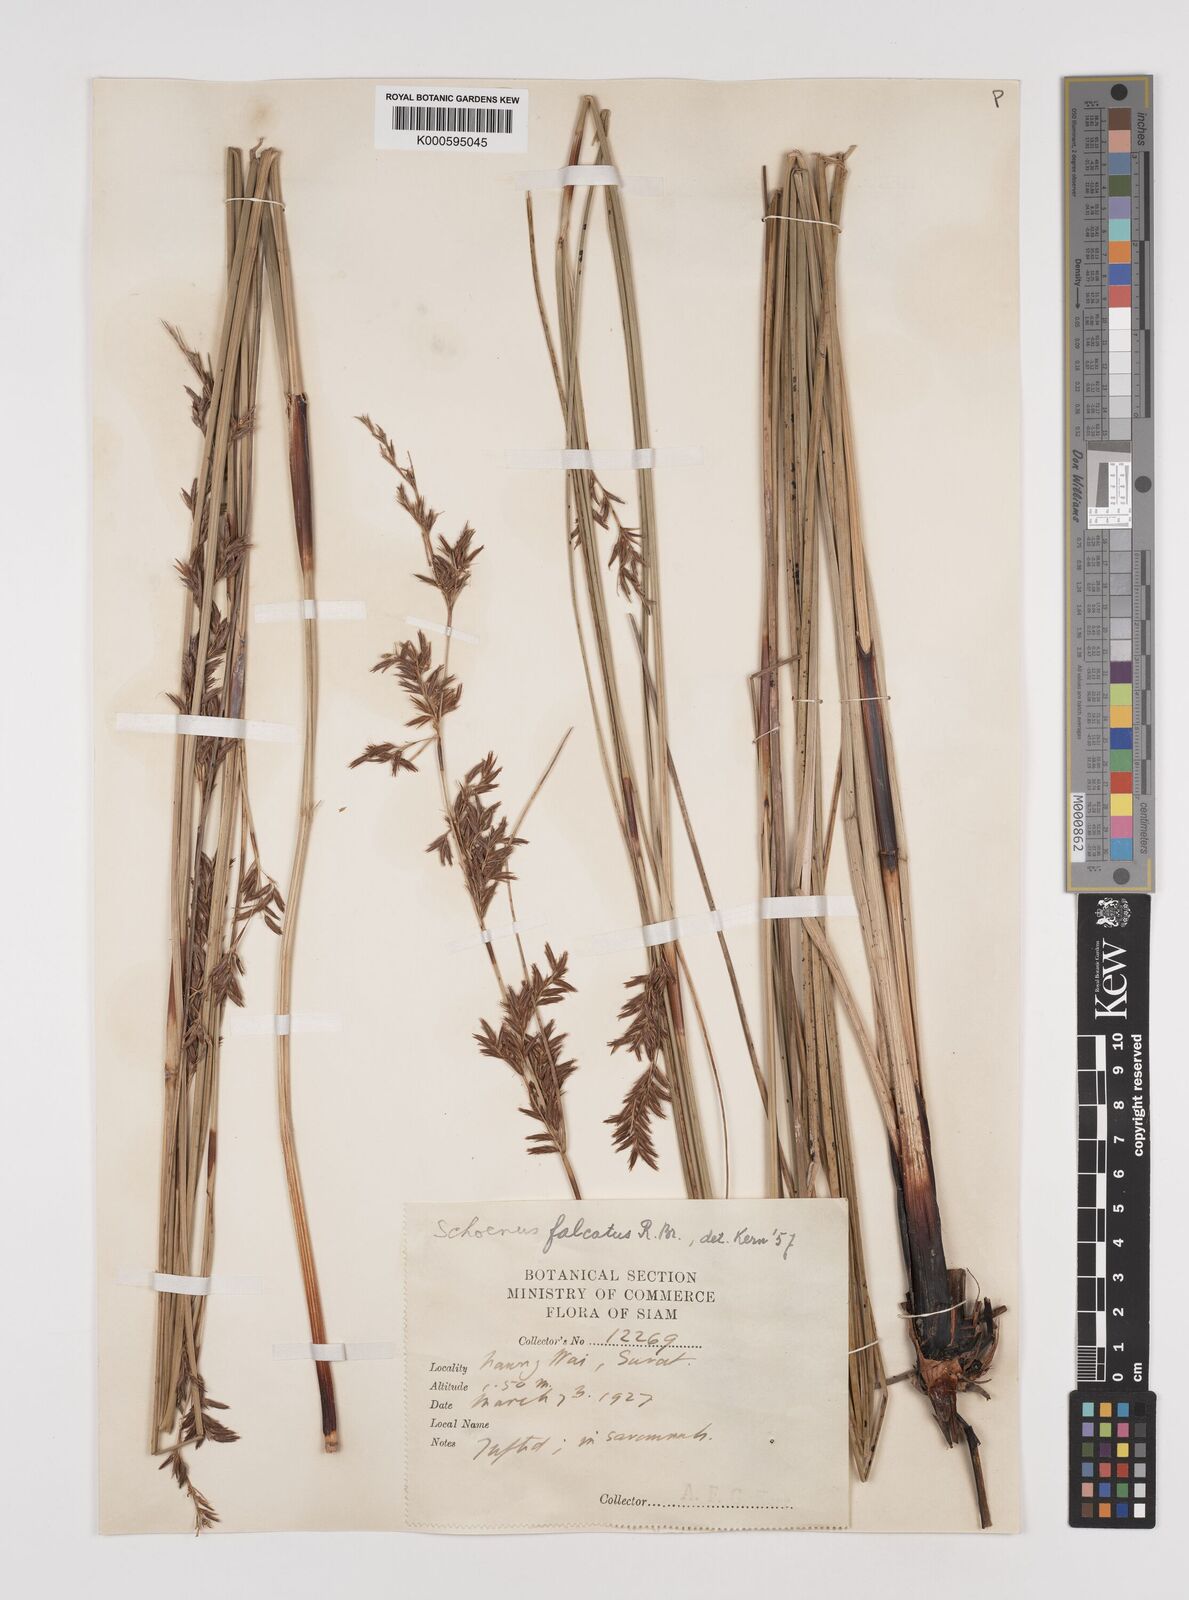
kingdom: Plantae
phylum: Tracheophyta
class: Liliopsida
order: Poales
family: Cyperaceae
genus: Schoenus
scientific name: Schoenus falcatus
